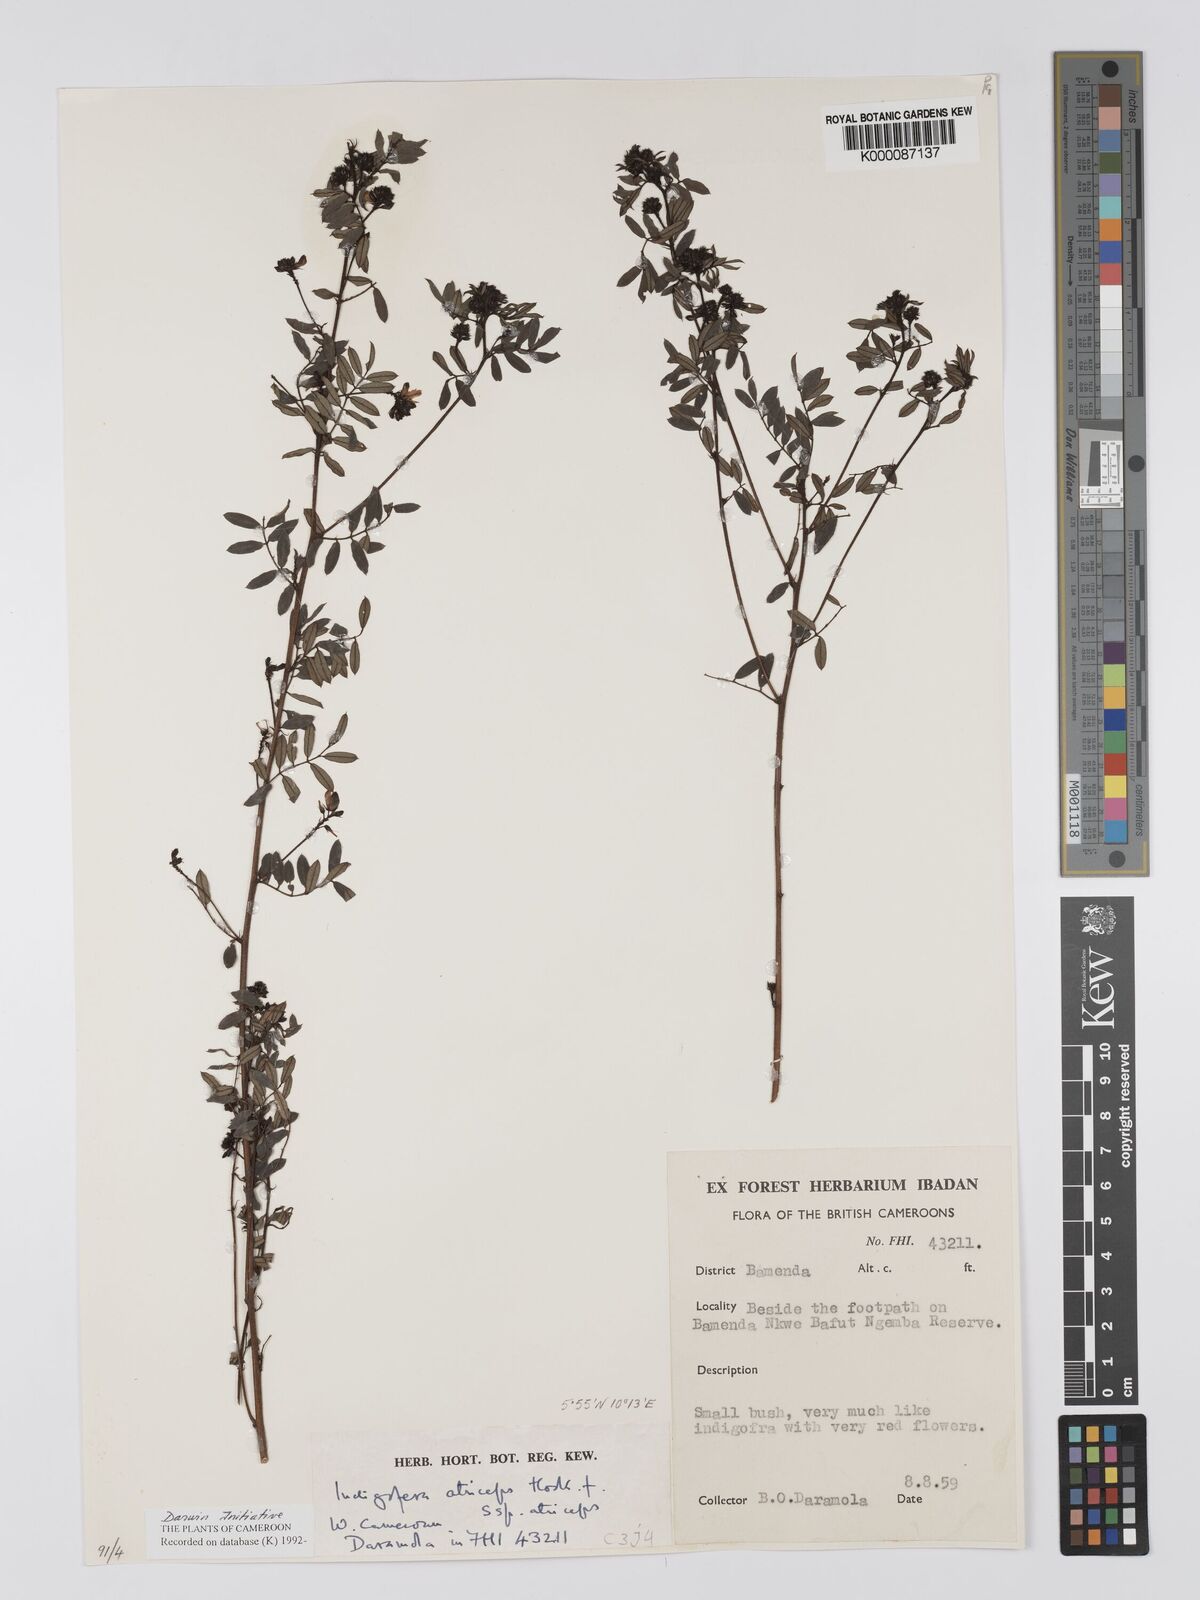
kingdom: Plantae
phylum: Tracheophyta
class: Magnoliopsida
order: Fabales
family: Fabaceae
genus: Indigofera
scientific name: Indigofera atriceps
